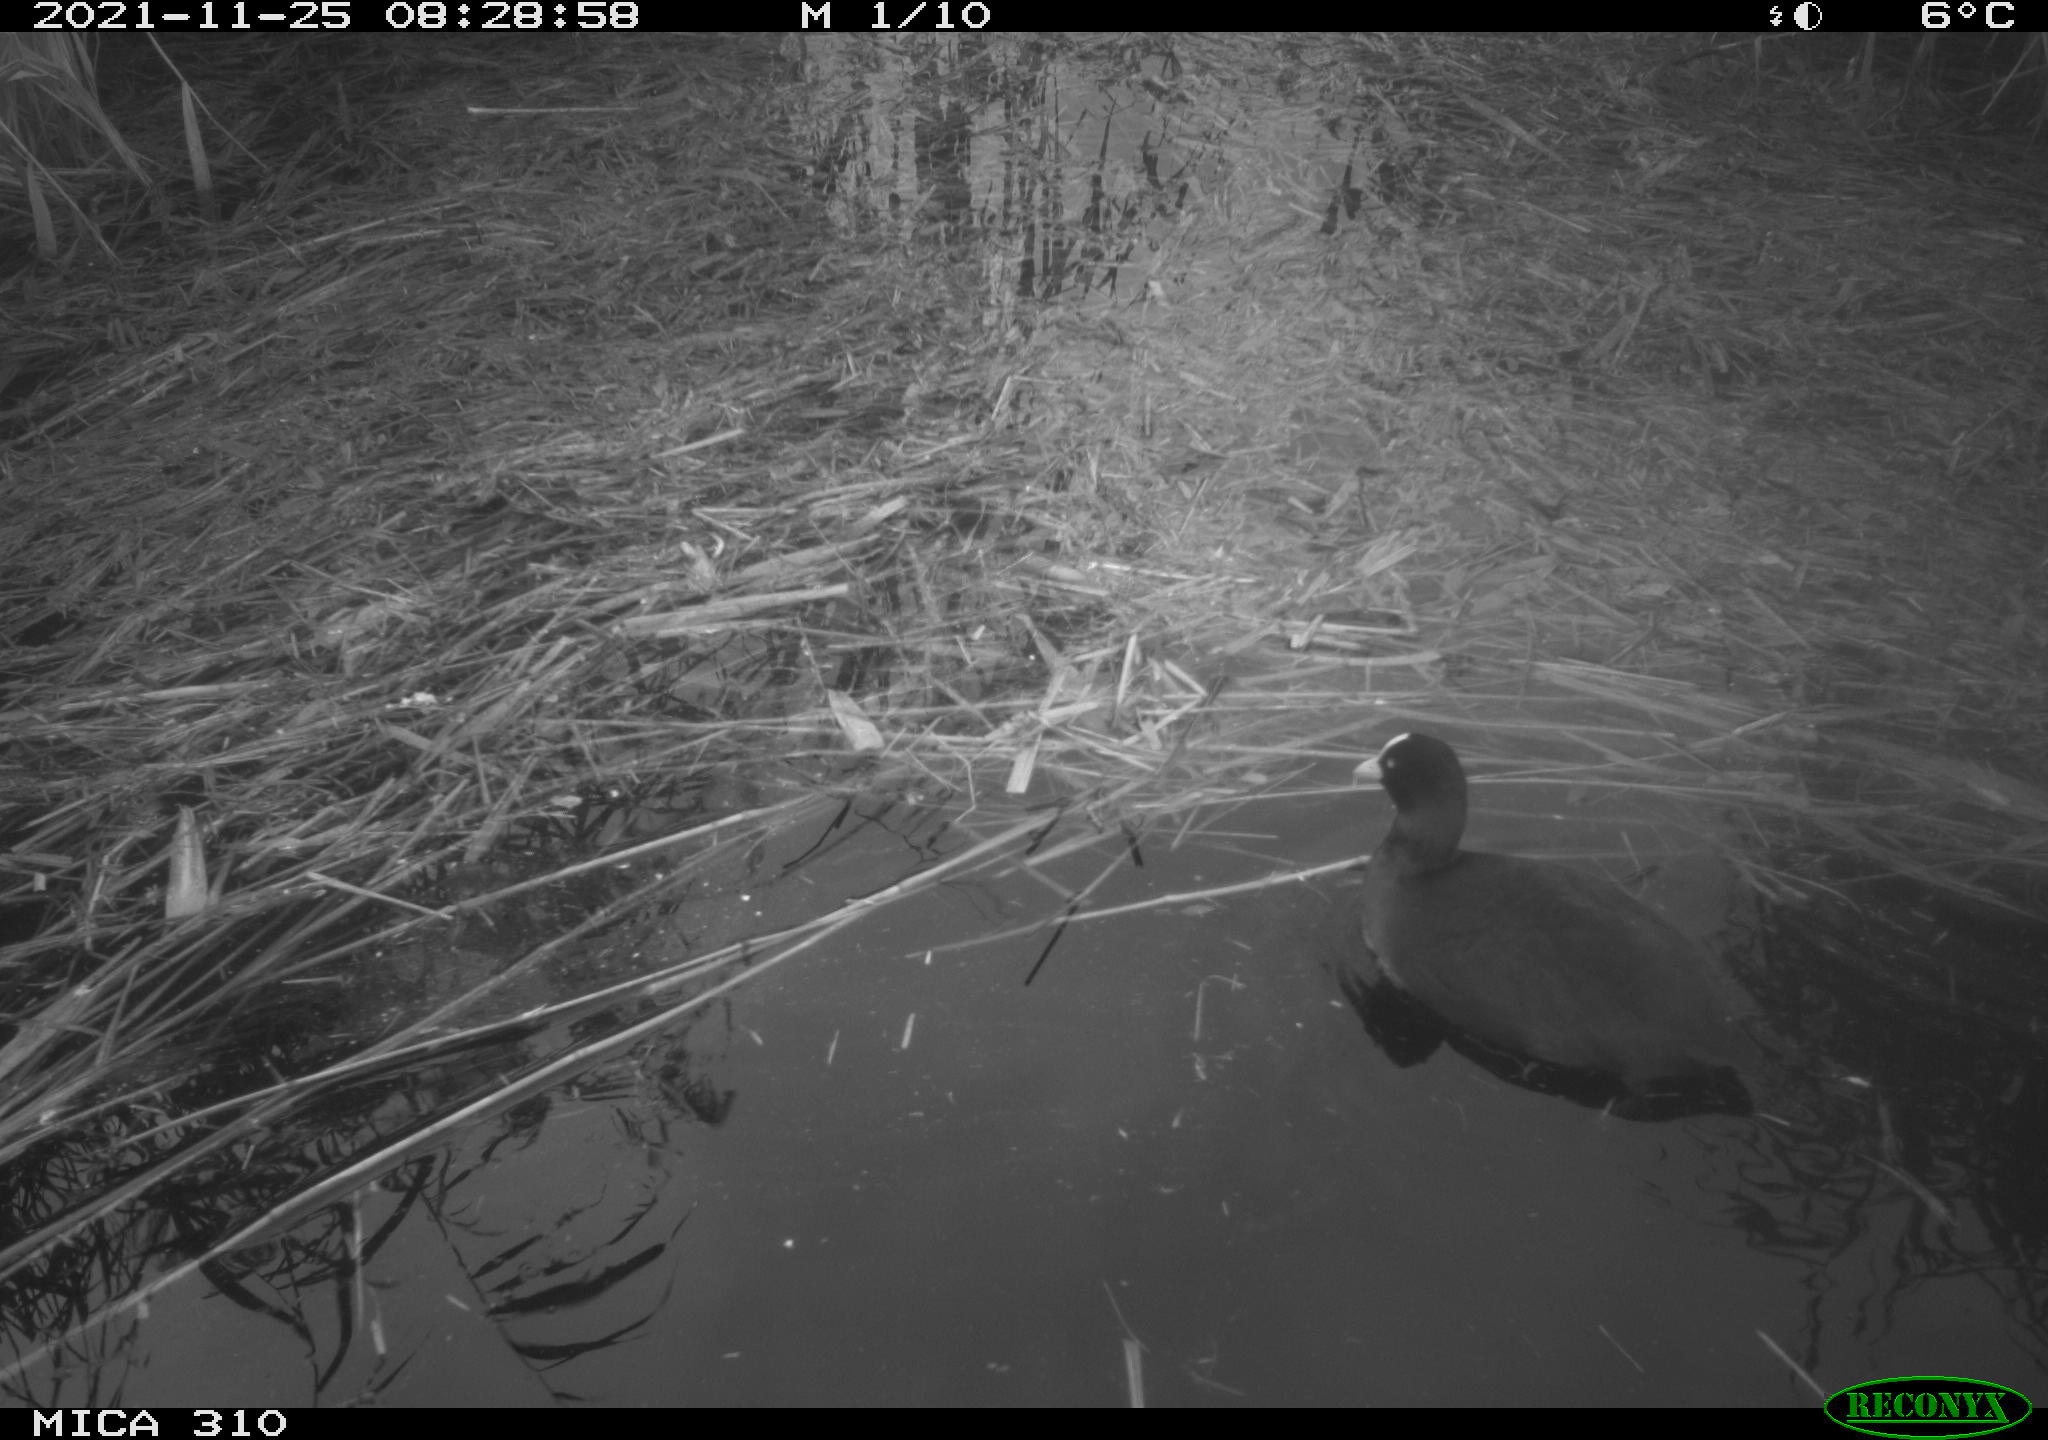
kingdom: Animalia
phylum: Chordata
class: Aves
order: Gruiformes
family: Rallidae
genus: Fulica
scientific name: Fulica atra
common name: Eurasian coot
